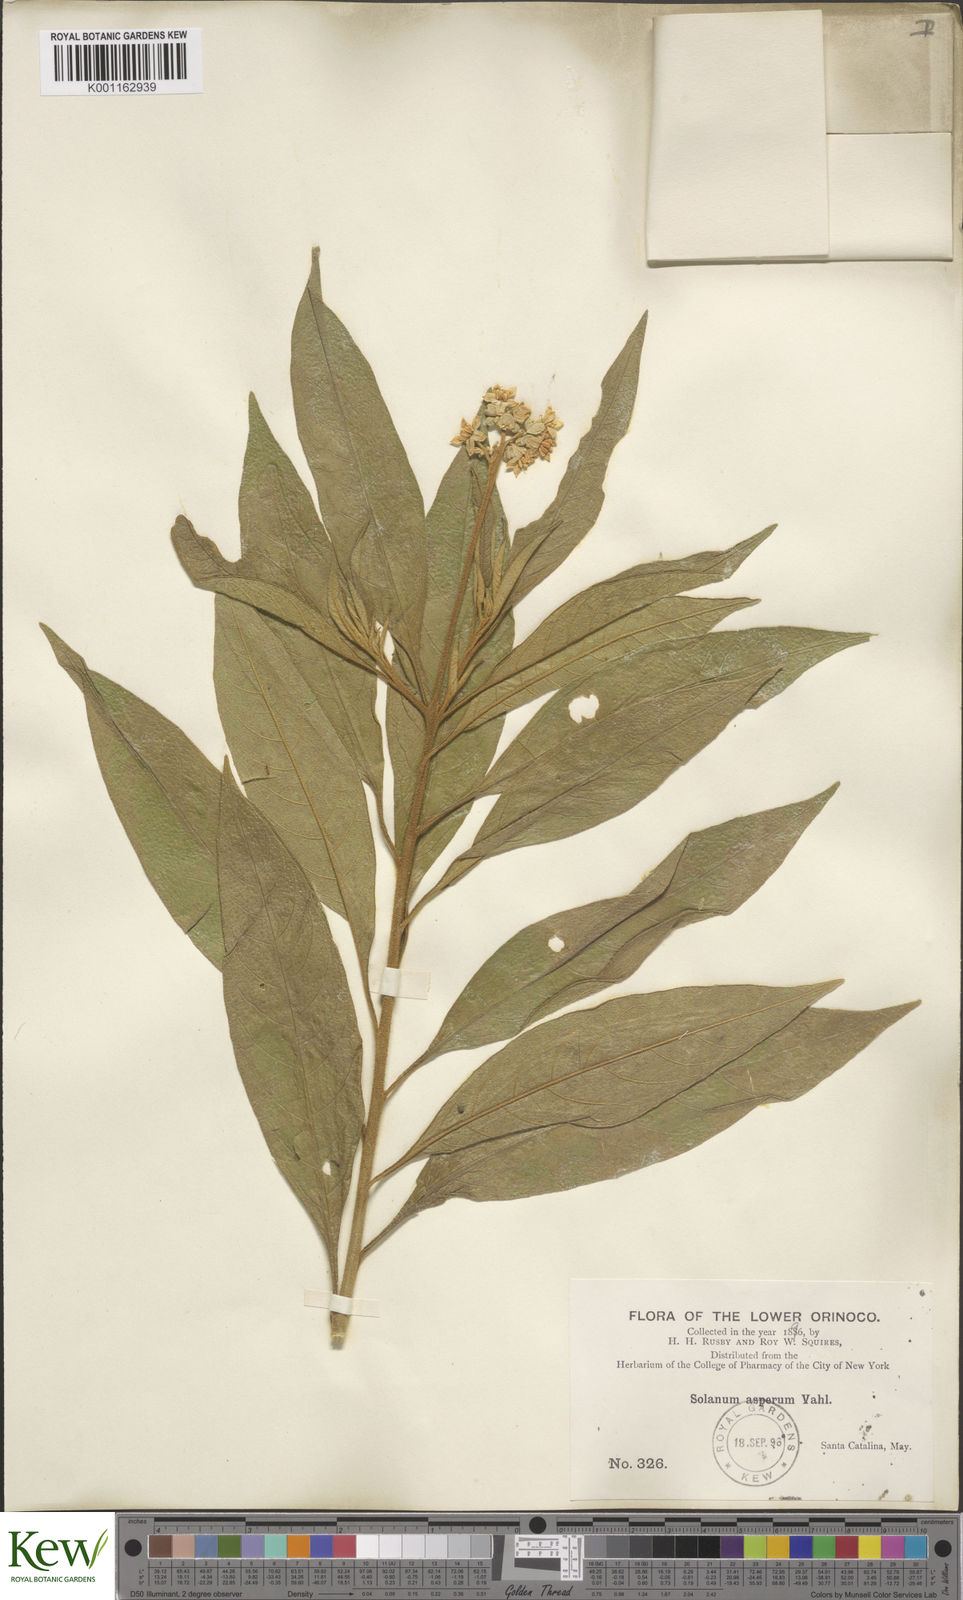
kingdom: Plantae
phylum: Tracheophyta
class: Magnoliopsida
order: Solanales
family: Solanaceae
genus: Solanum
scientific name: Solanum asperum
